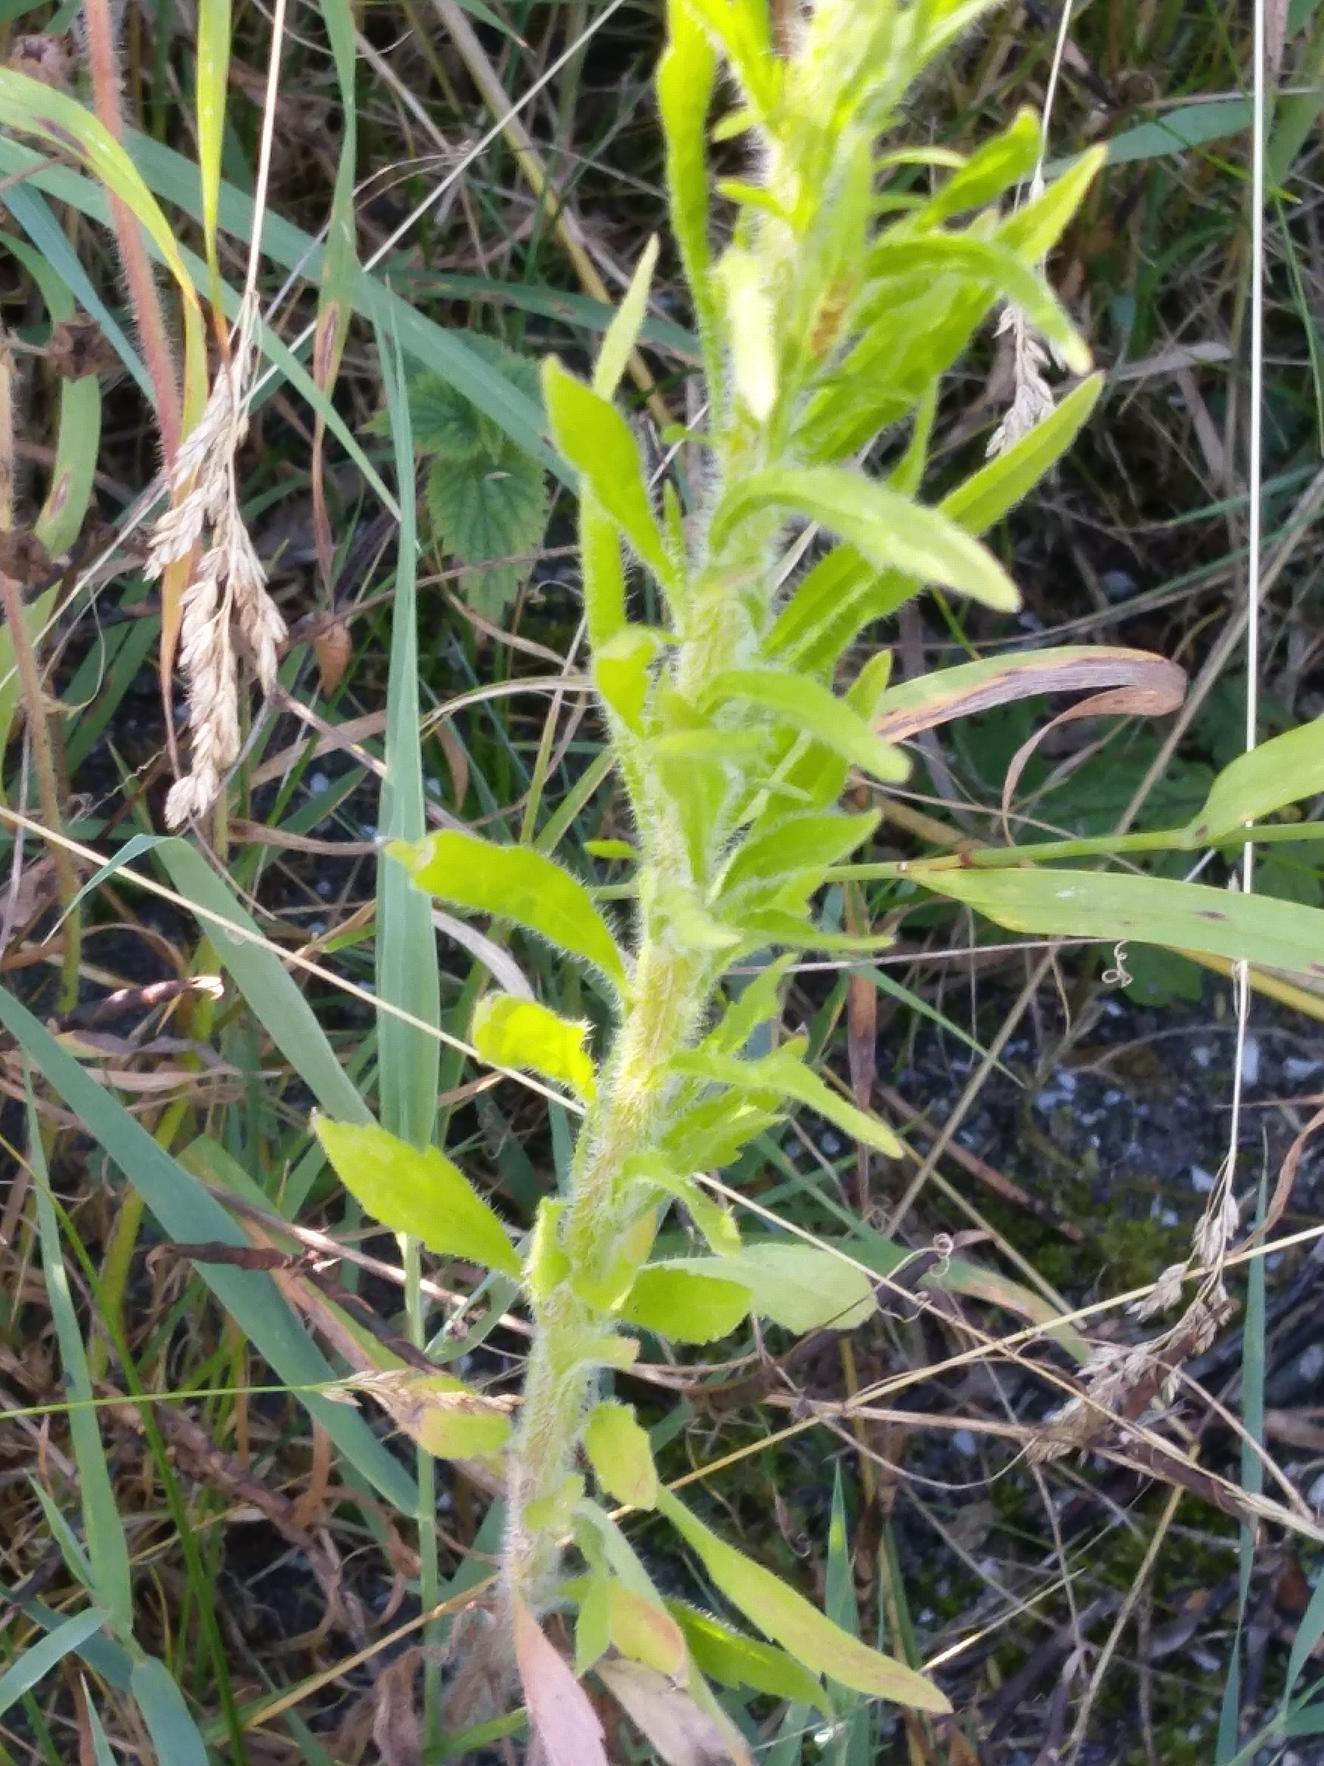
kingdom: Plantae
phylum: Tracheophyta
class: Magnoliopsida
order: Asterales
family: Asteraceae
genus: Erigeron
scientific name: Erigeron canadensis
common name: Kanadisk bakkestjerne
